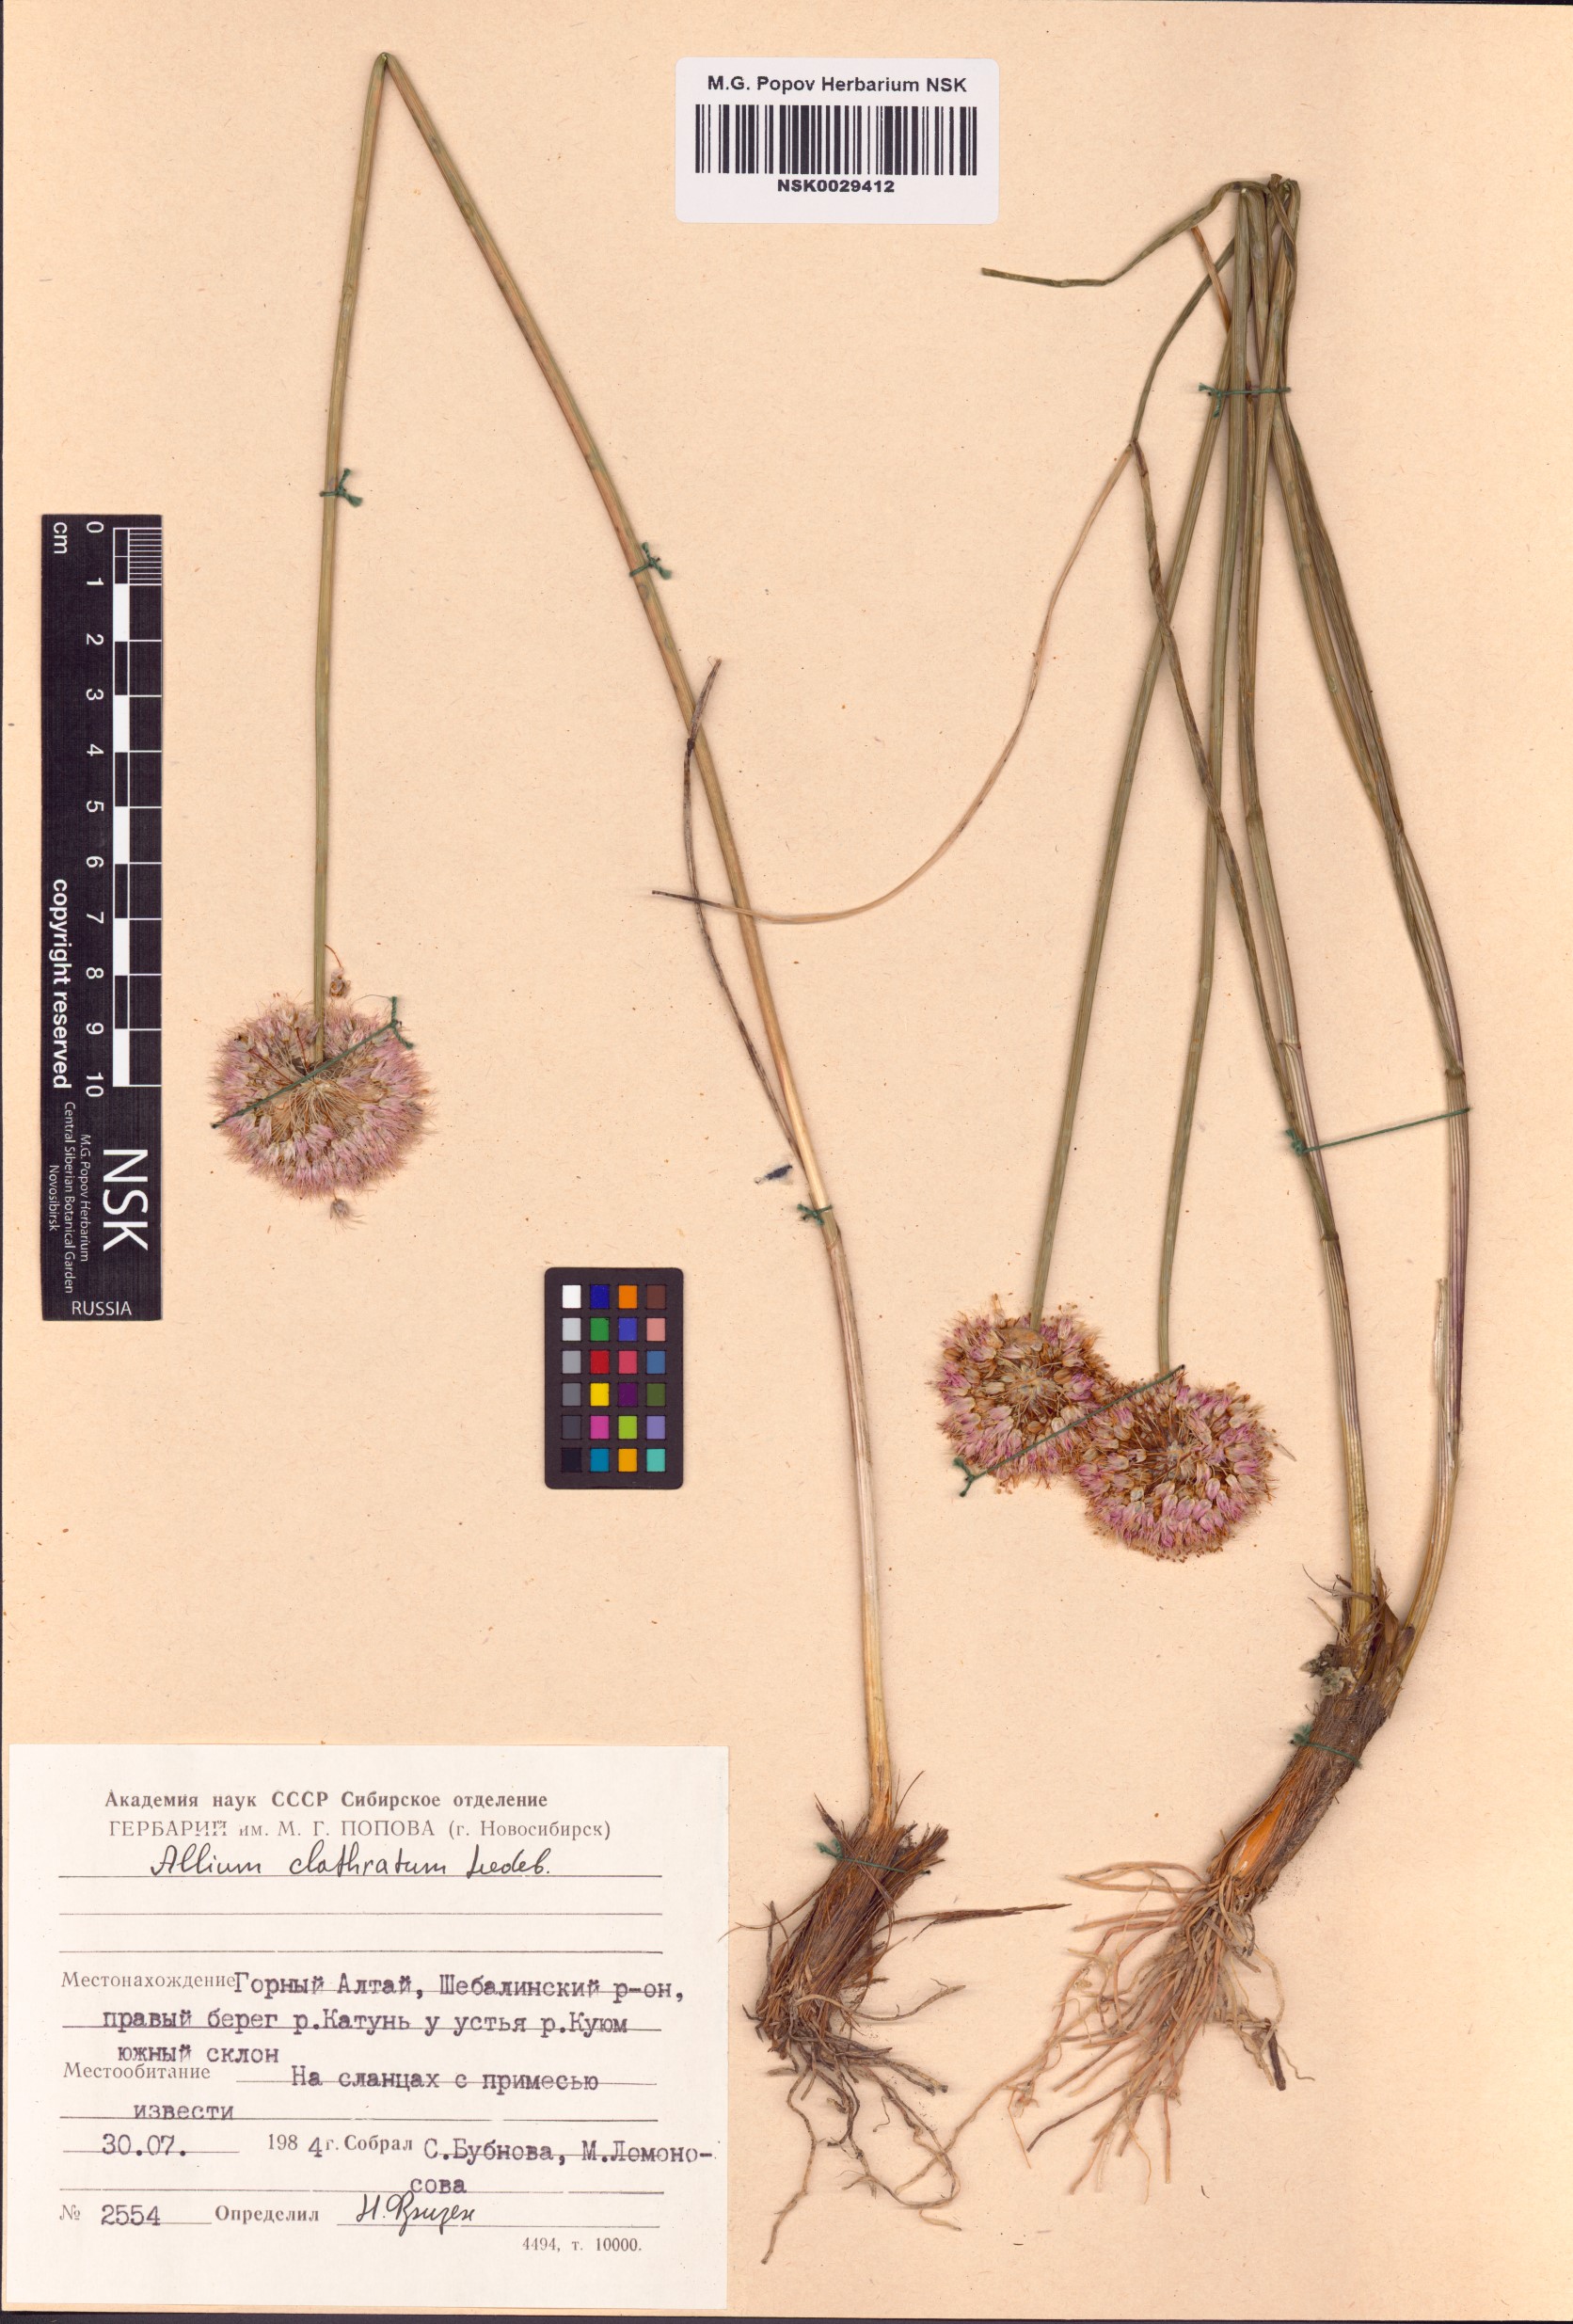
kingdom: Plantae
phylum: Tracheophyta
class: Liliopsida
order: Asparagales
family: Amaryllidaceae
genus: Allium
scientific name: Allium clathratum
